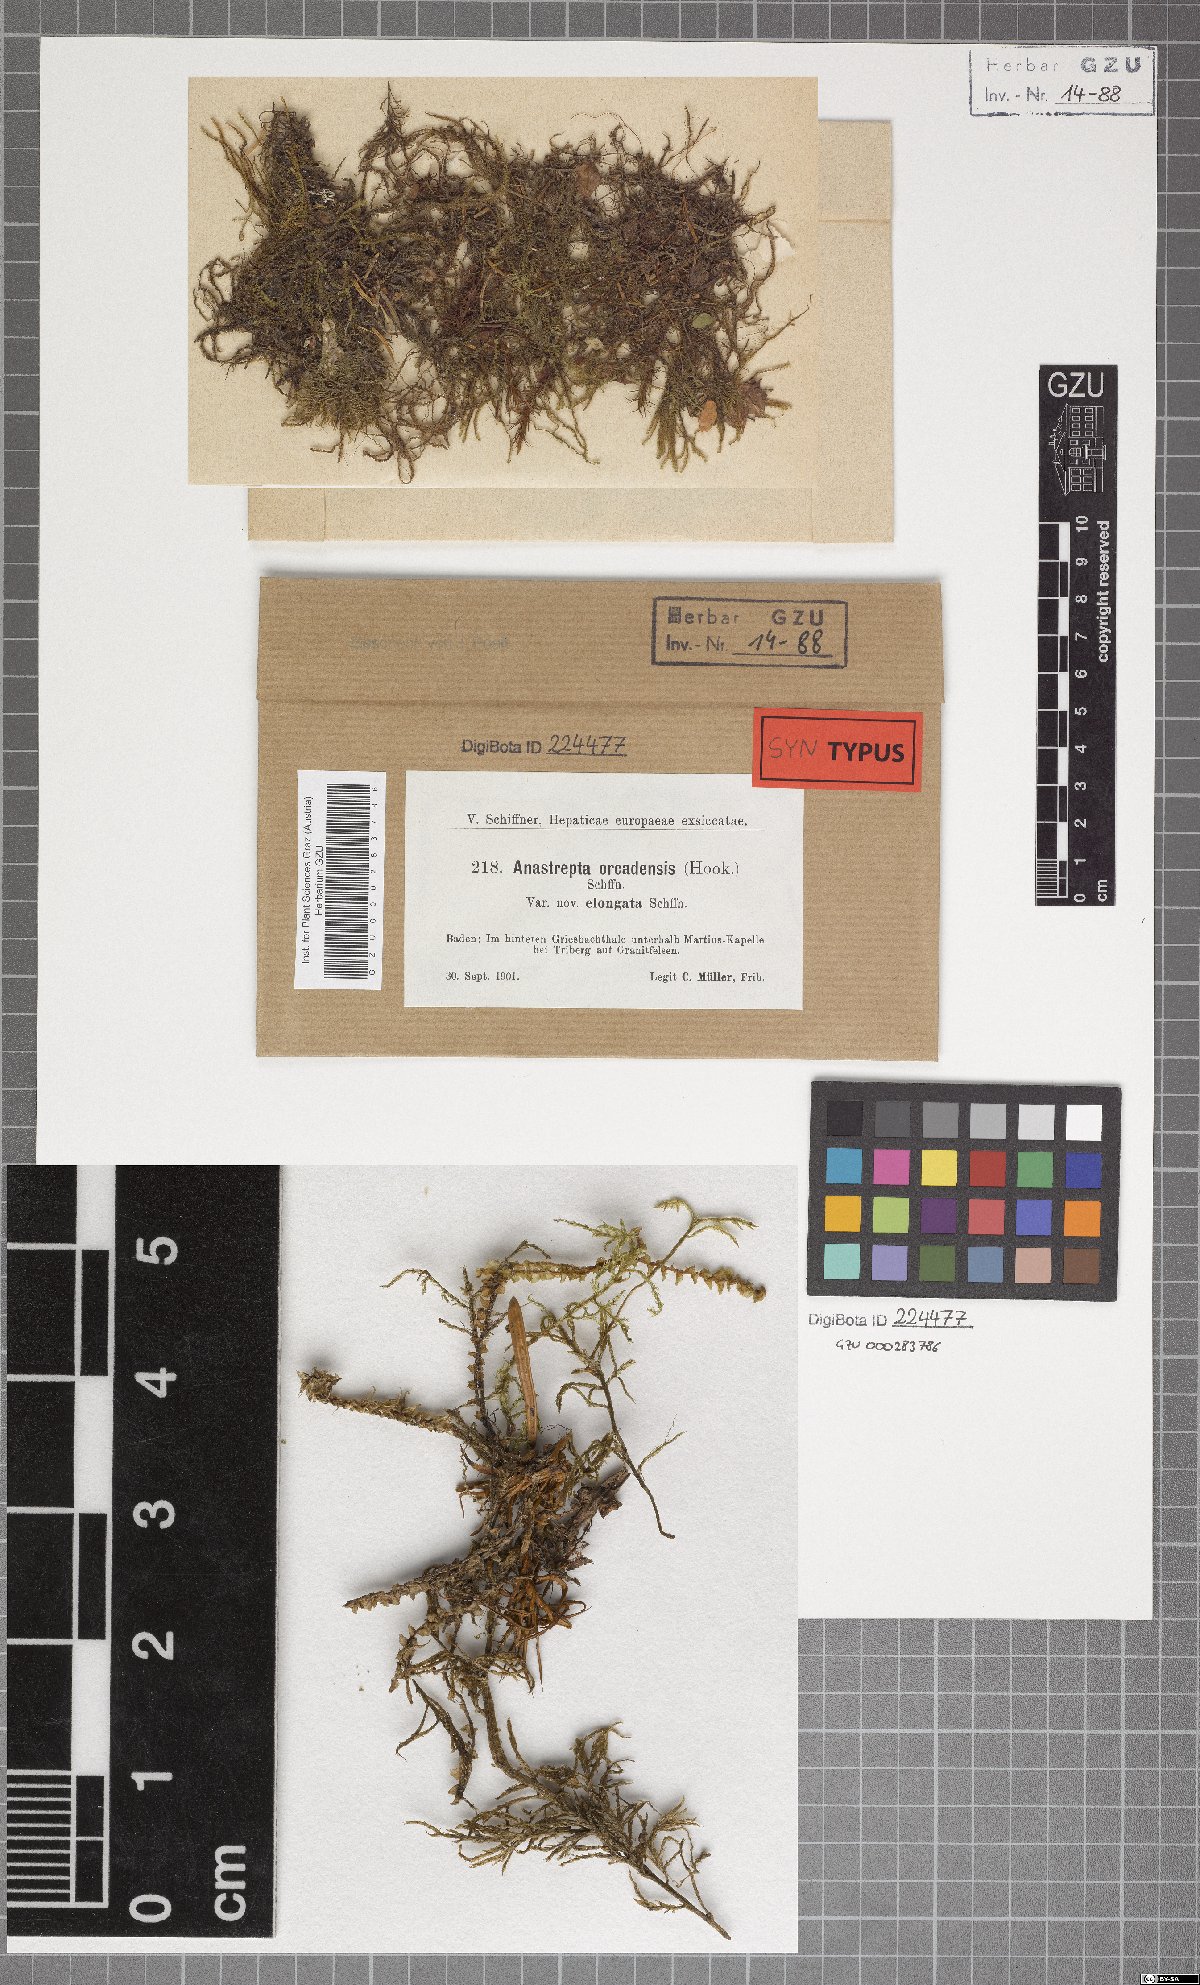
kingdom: Plantae
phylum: Marchantiophyta
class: Jungermanniopsida
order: Jungermanniales
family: Anastrophyllaceae
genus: Anastrepta
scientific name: Anastrepta orcadensis
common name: Orkney notchwort
